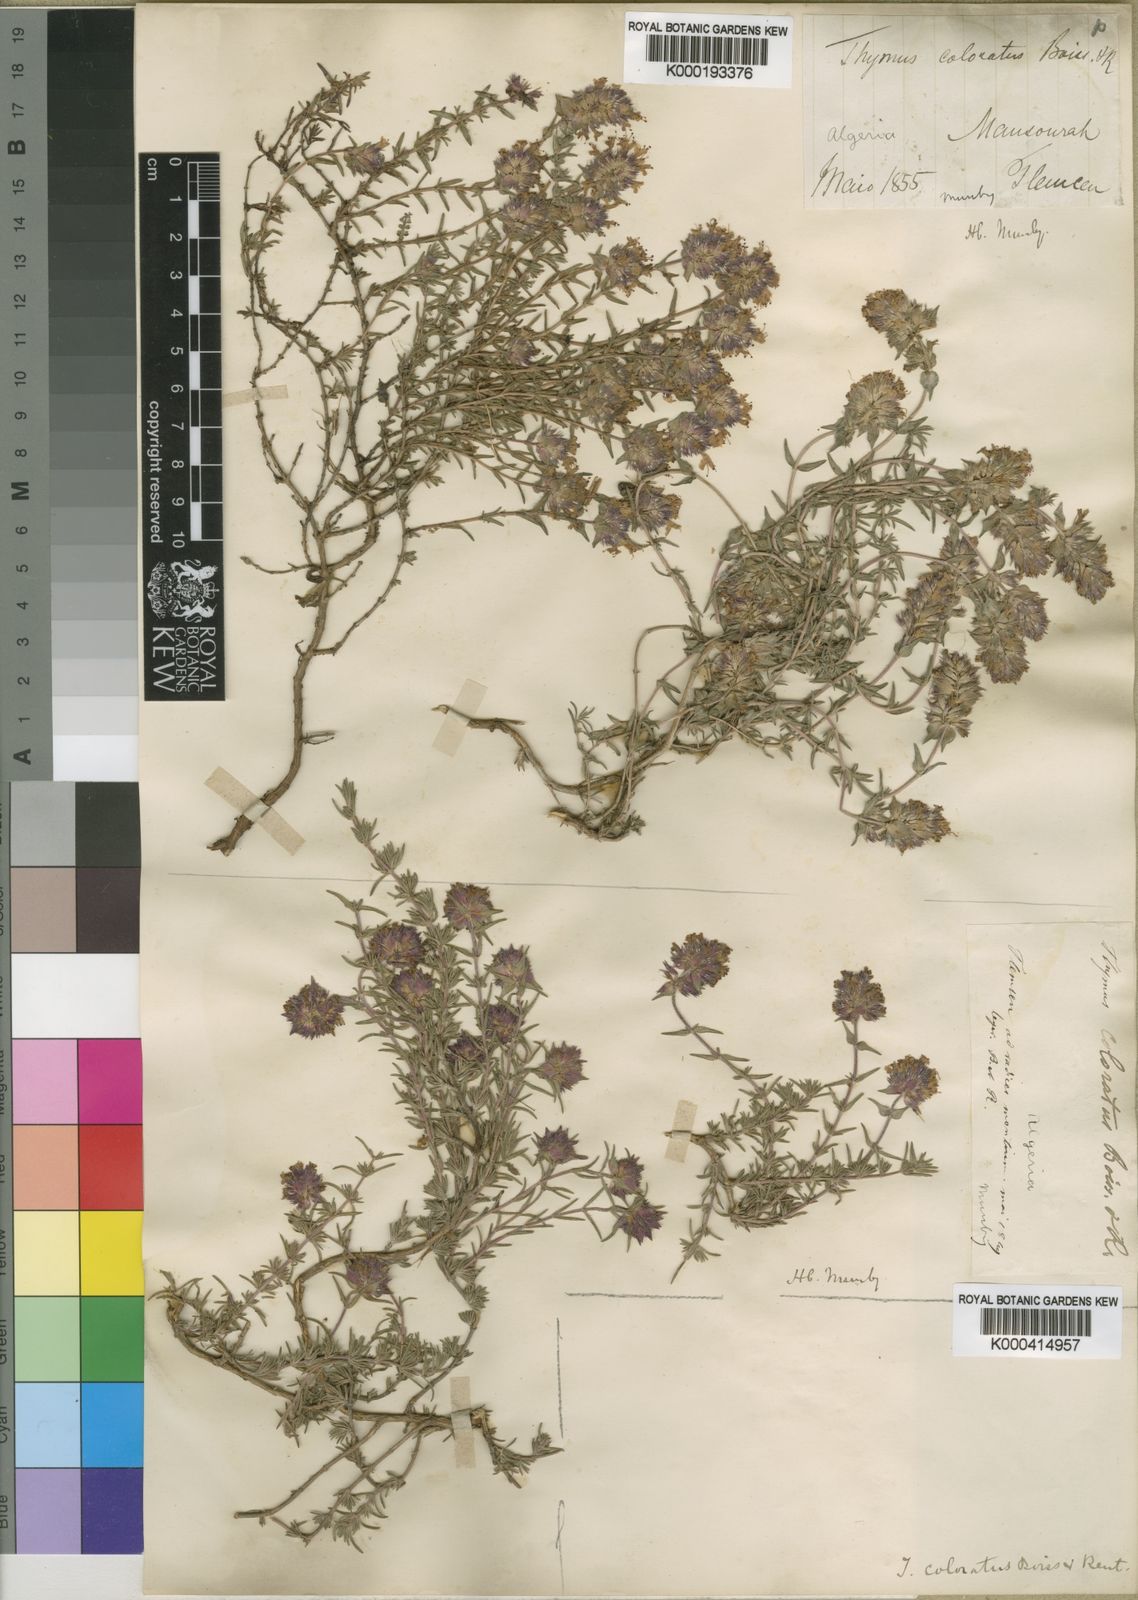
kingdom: Plantae
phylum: Tracheophyta
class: Magnoliopsida
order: Lamiales
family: Lamiaceae
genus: Thymus
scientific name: Thymus munbyanus
